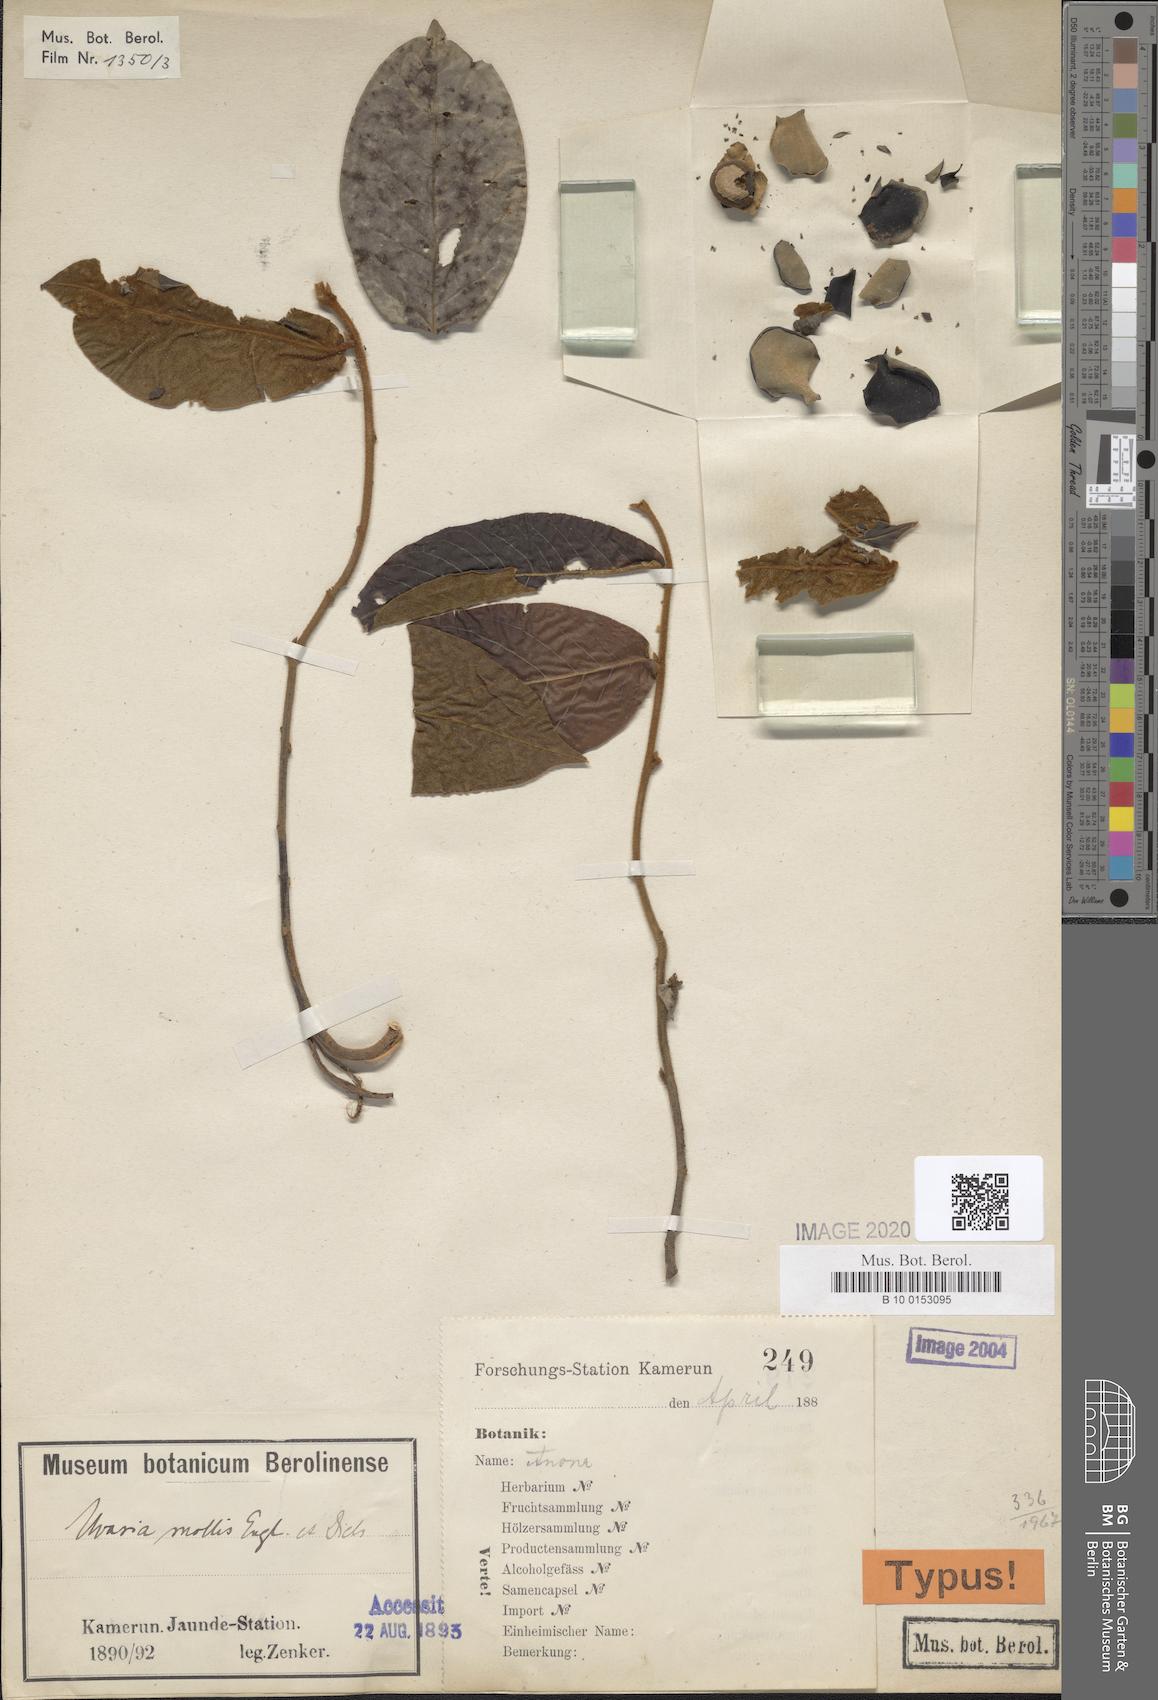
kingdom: Plantae
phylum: Tracheophyta
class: Magnoliopsida
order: Magnoliales
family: Annonaceae
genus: Uvaria
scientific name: Uvaria mollis
